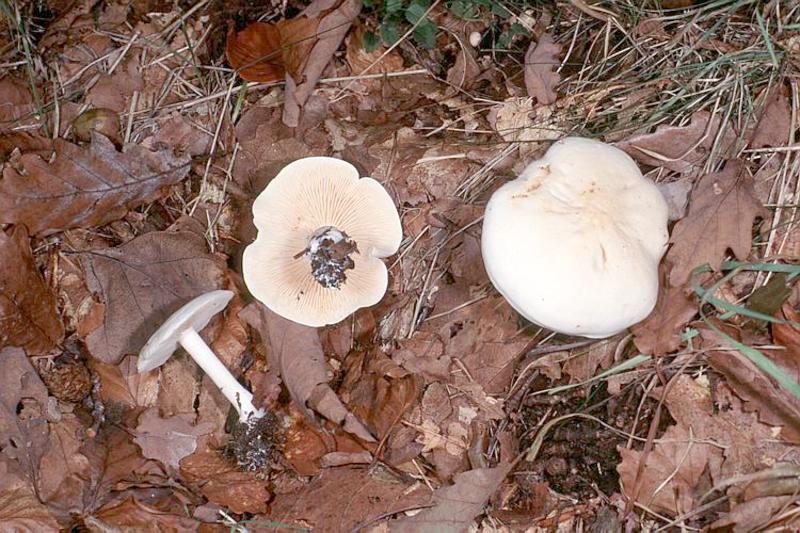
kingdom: Fungi
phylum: Basidiomycota
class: Agaricomycetes
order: Agaricales
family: Tricholomataceae
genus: Lepista
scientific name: Lepista irina
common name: Flowery blewit
